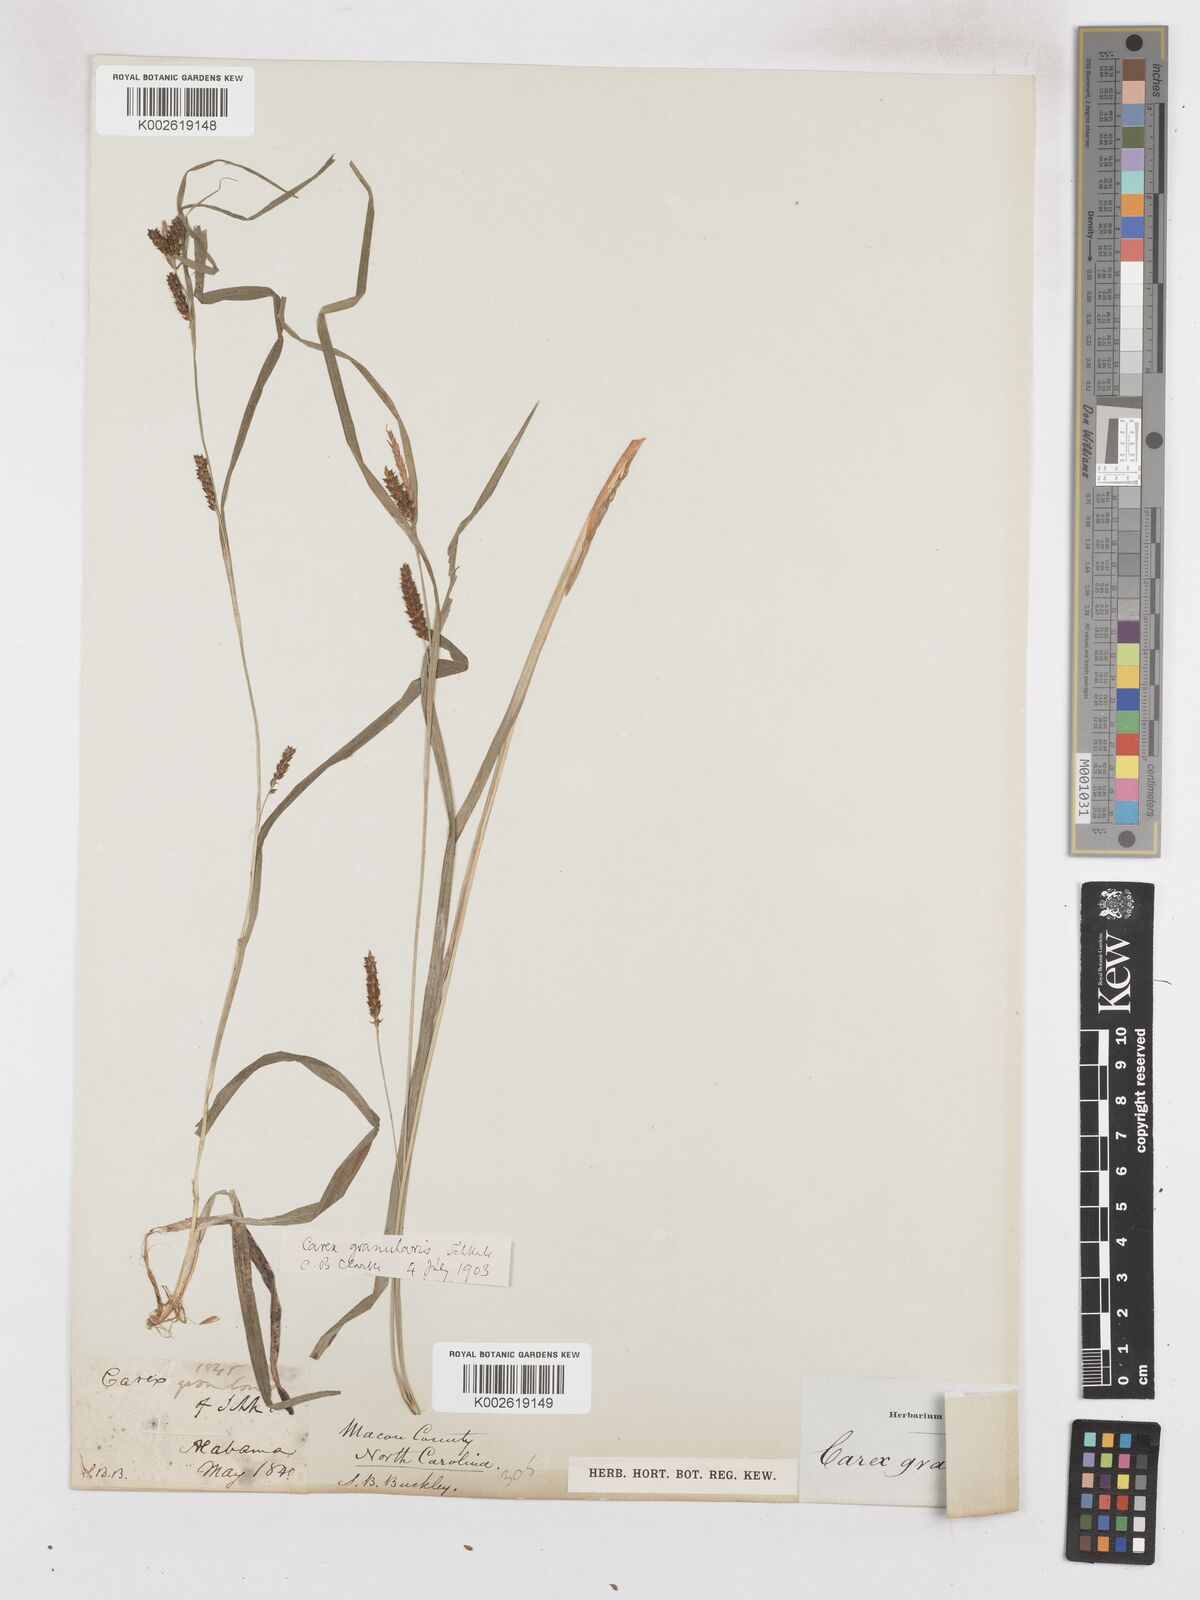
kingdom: Plantae
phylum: Tracheophyta
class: Liliopsida
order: Poales
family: Cyperaceae
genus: Carex
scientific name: Carex granularis
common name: Granular sedge
